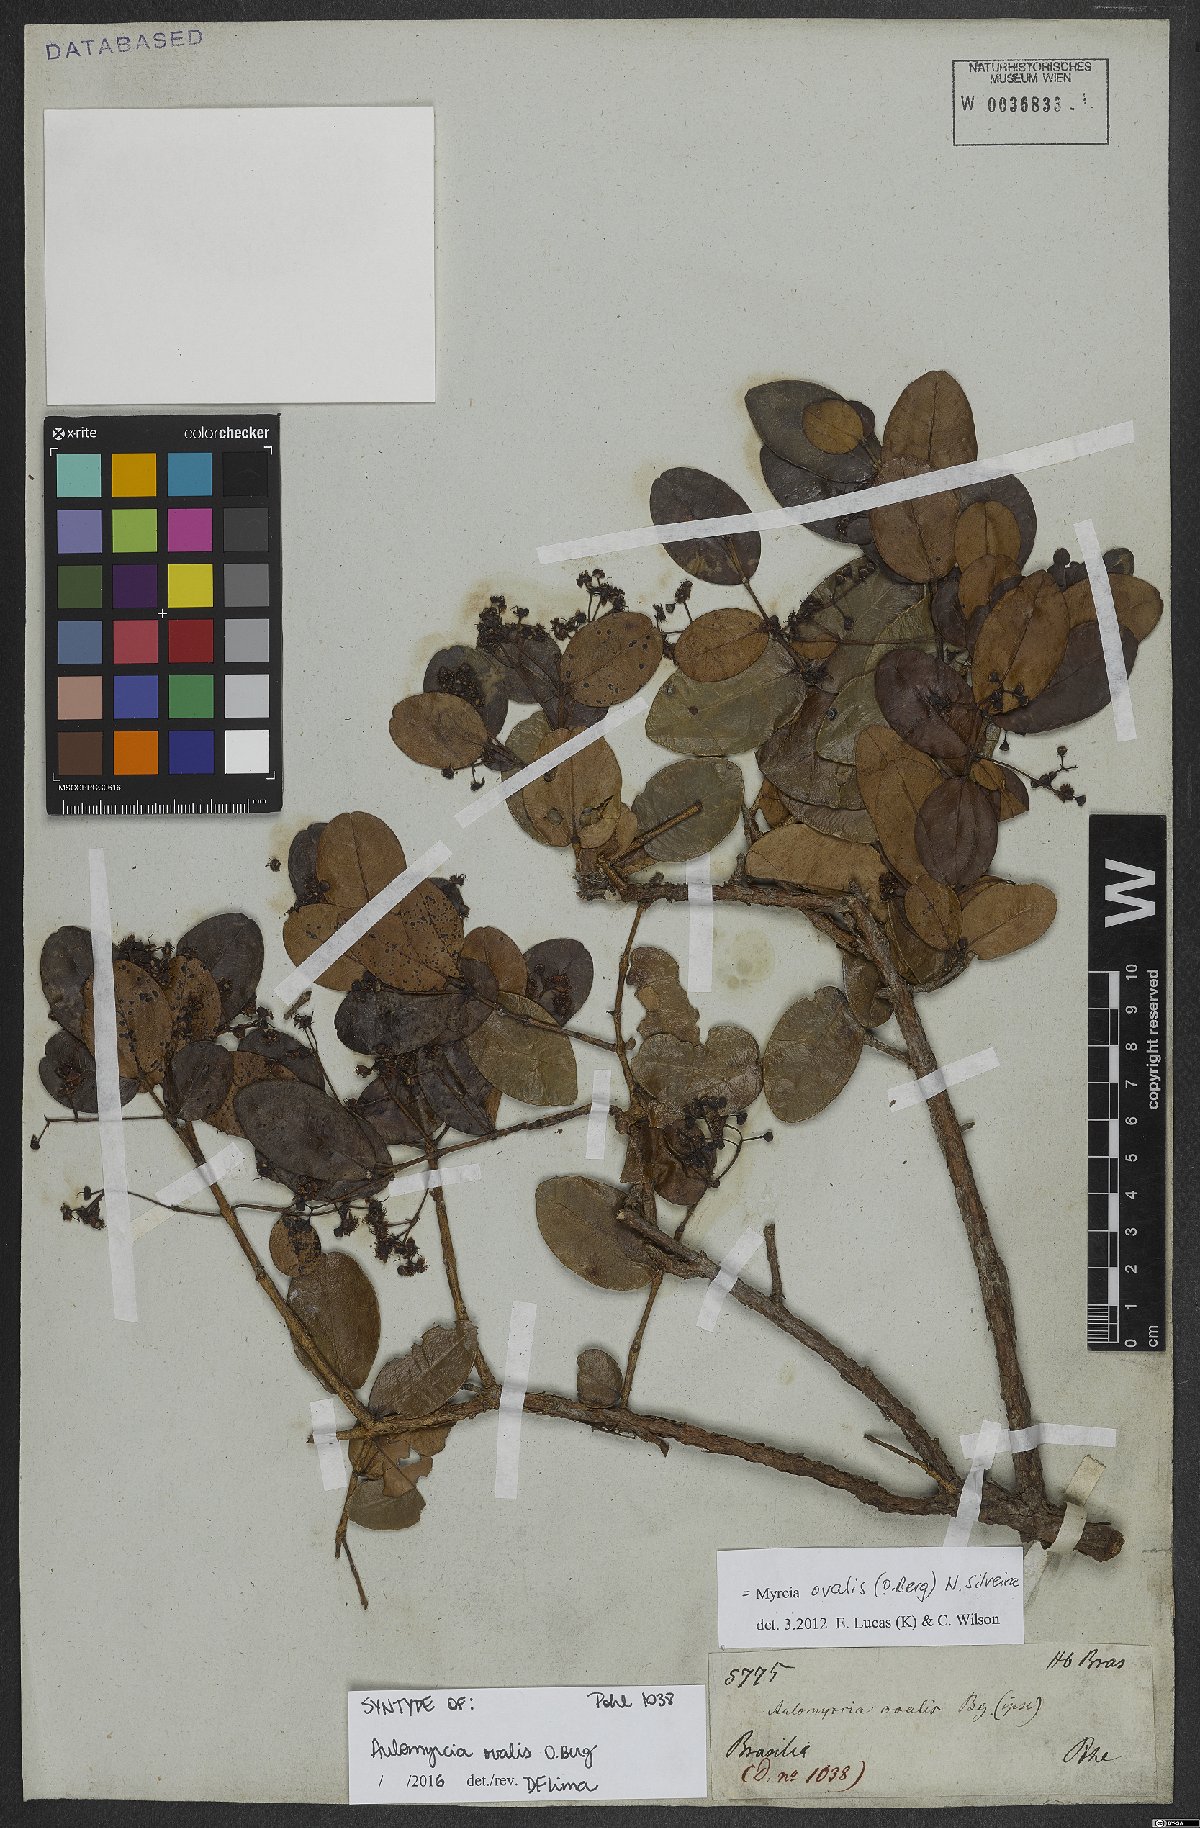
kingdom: Plantae
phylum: Tracheophyta
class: Magnoliopsida
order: Myrtales
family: Myrtaceae
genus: Myrcia
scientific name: Myrcia ovalis
